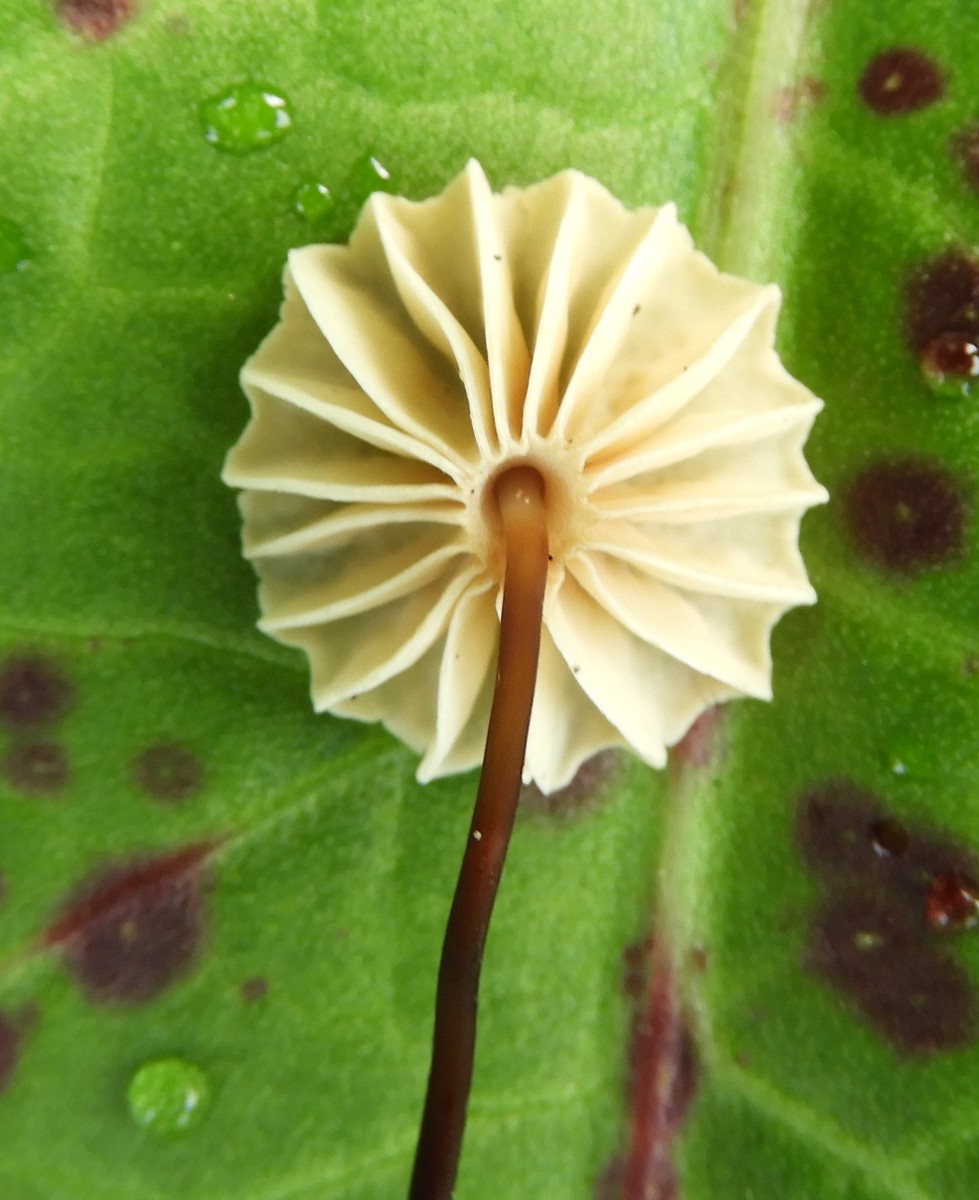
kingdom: Fungi
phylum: Basidiomycota
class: Agaricomycetes
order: Agaricales
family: Marasmiaceae
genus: Marasmius
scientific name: Marasmius rotula
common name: hjul-bruskhat
